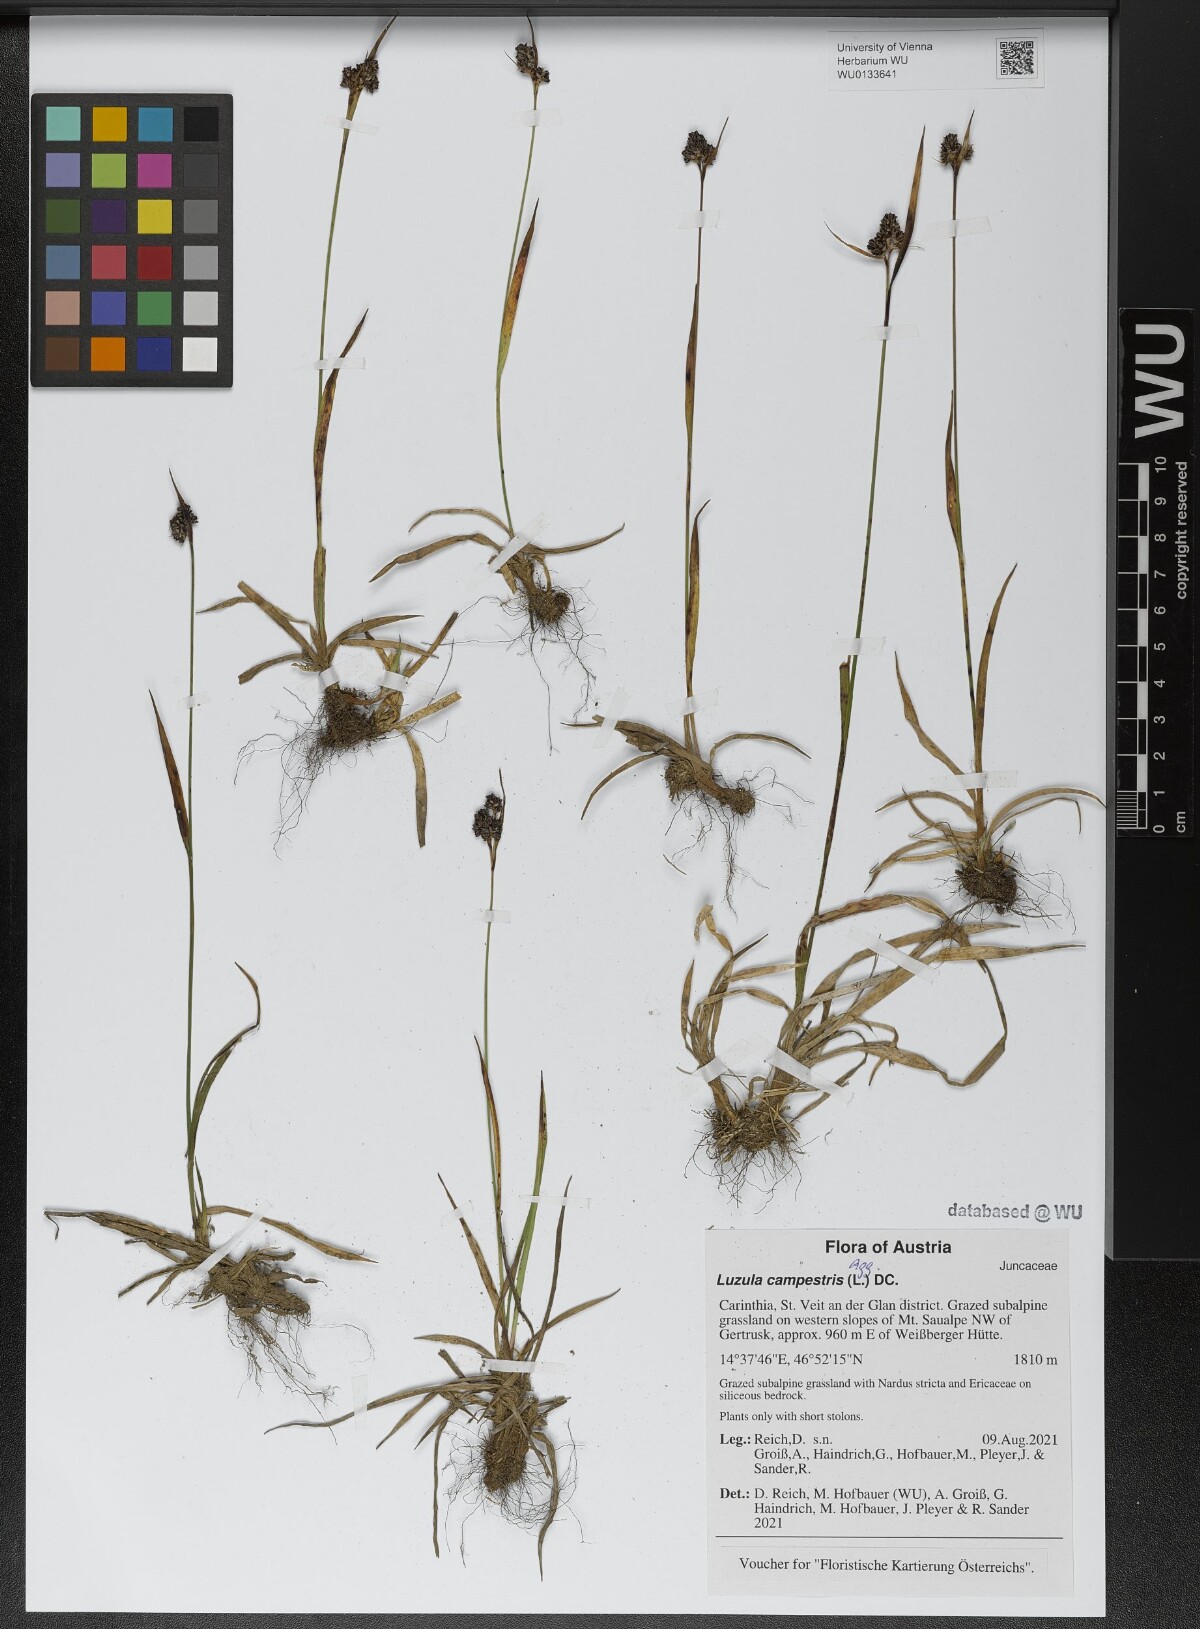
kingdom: Plantae
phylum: Tracheophyta
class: Liliopsida
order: Poales
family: Juncaceae
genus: Luzula
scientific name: Luzula campestris
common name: Field wood-rush
